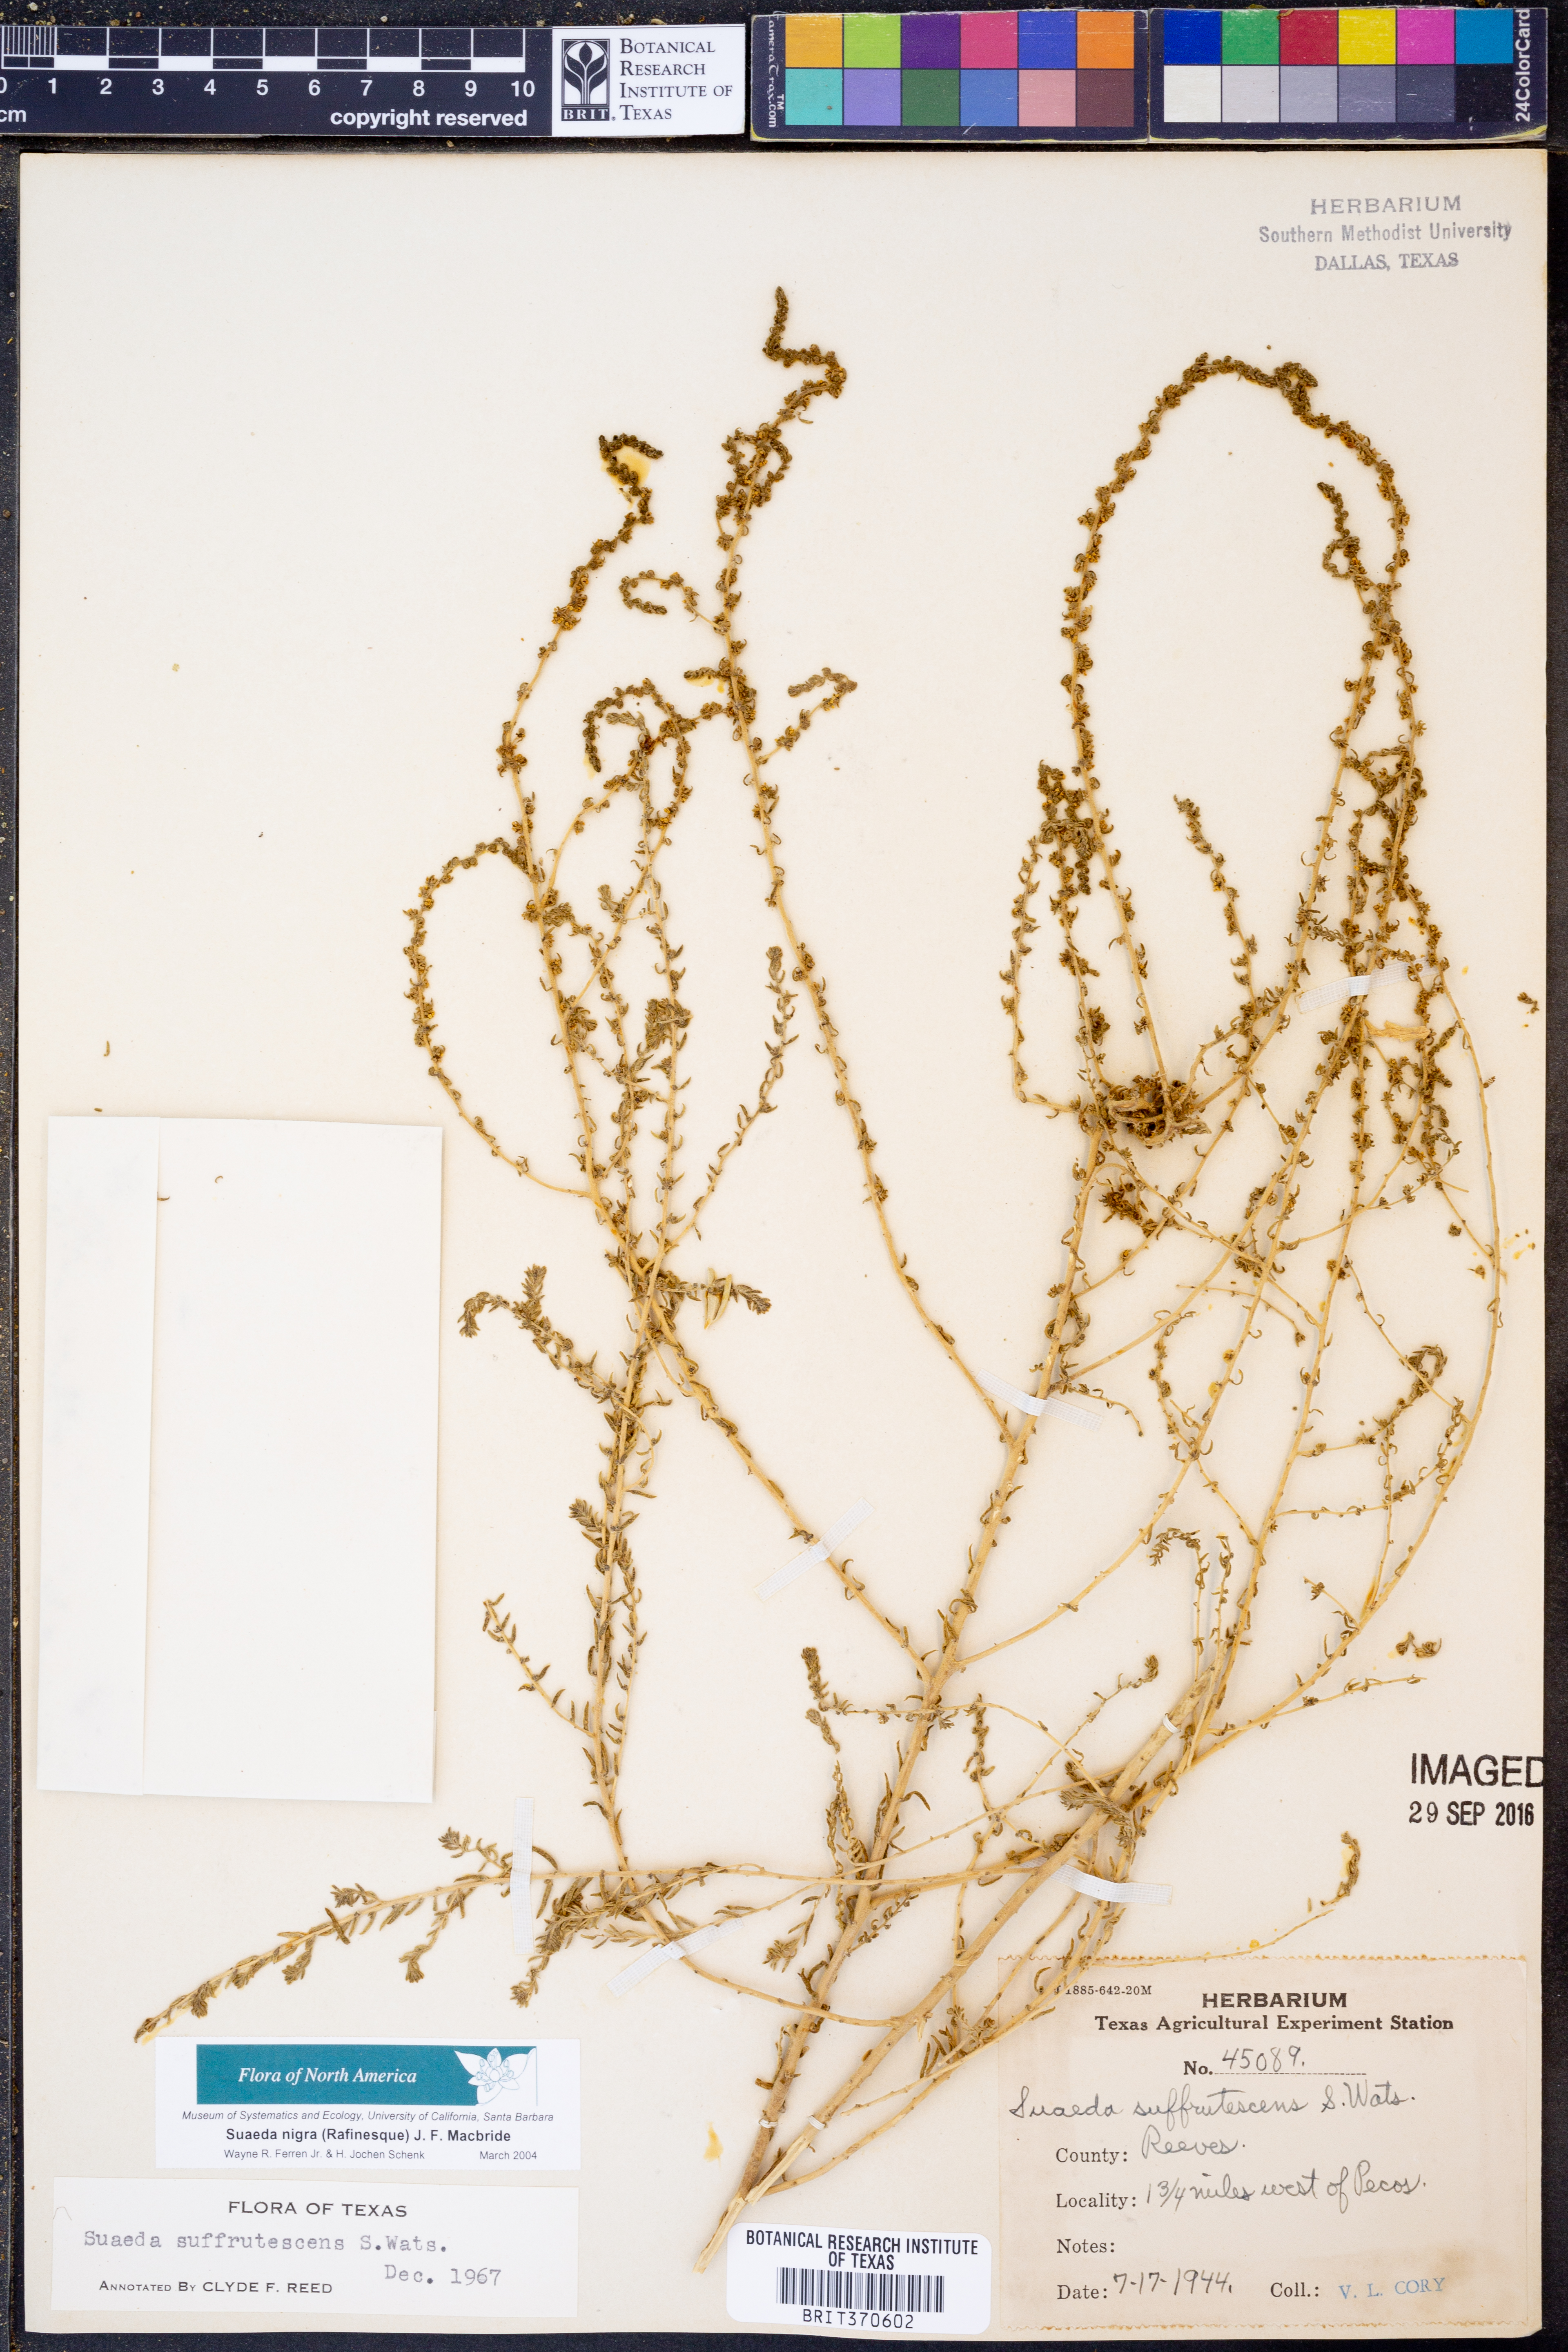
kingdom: Plantae
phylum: Tracheophyta
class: Magnoliopsida
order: Caryophyllales
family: Amaranthaceae
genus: Suaeda
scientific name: Suaeda nigra
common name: Bush seepweed
